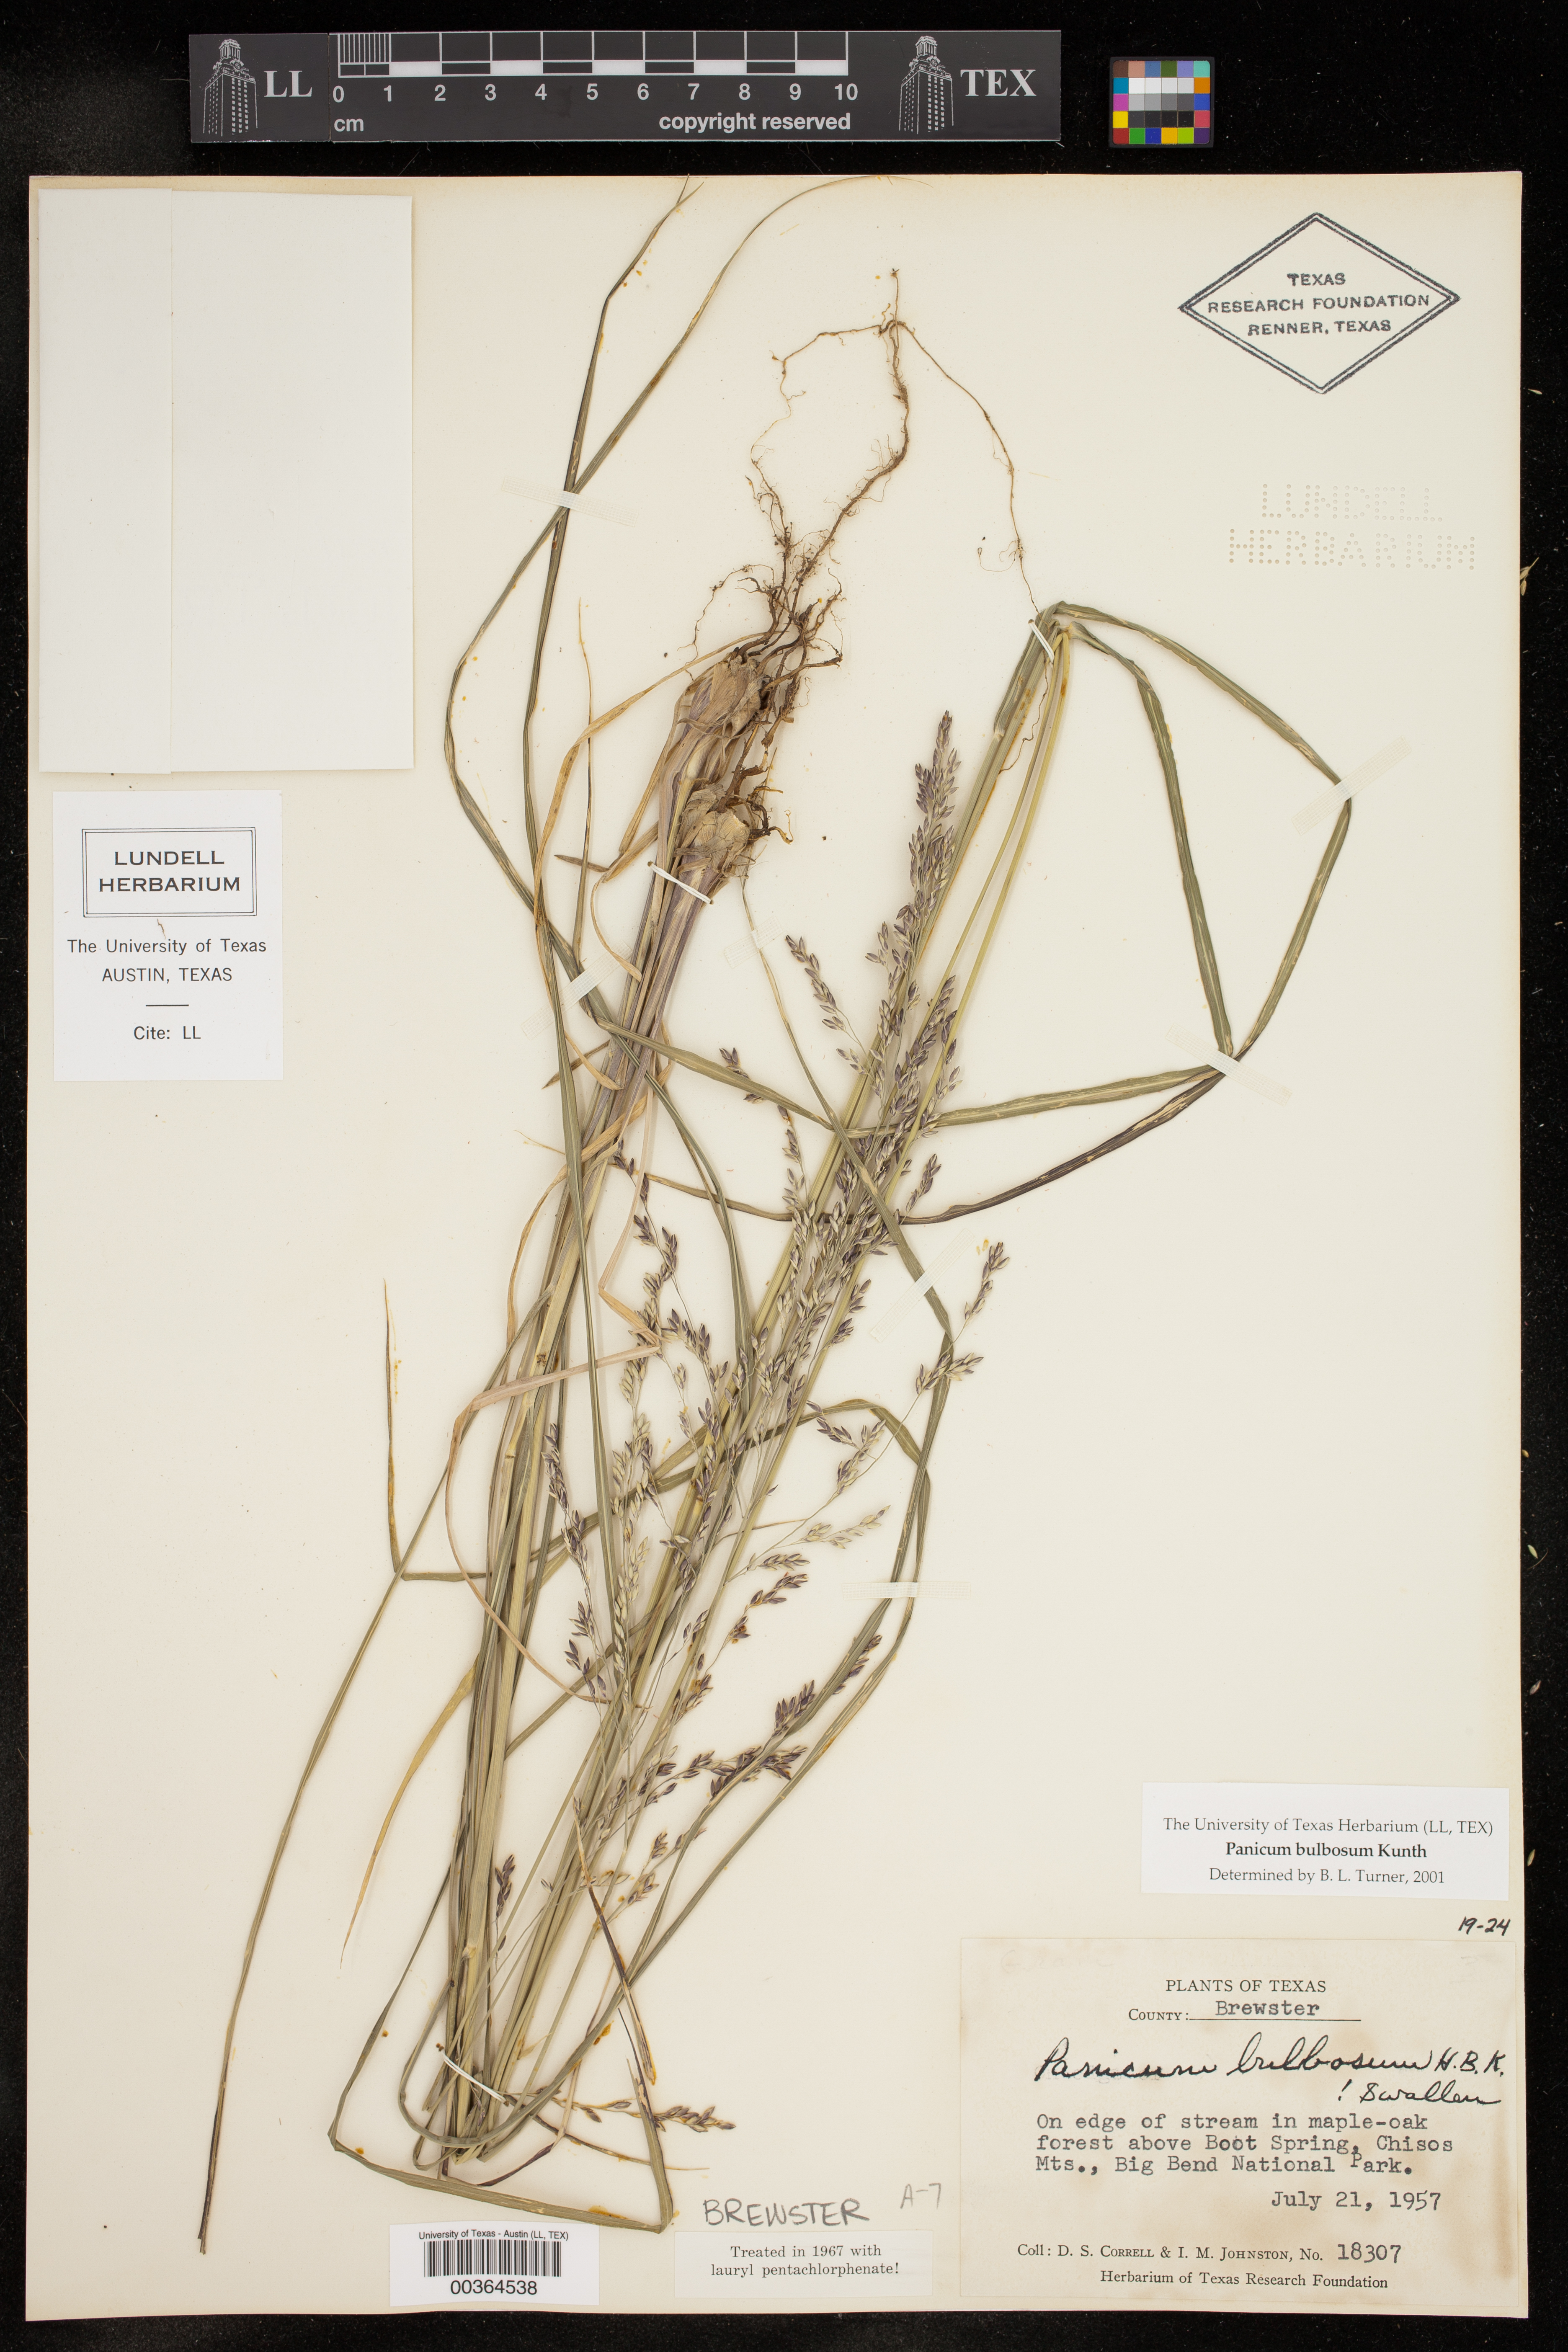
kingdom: Plantae
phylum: Tracheophyta
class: Liliopsida
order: Poales
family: Poaceae
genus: Zuloagaea
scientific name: Zuloagaea bulbosa
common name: Canyon panic grass
